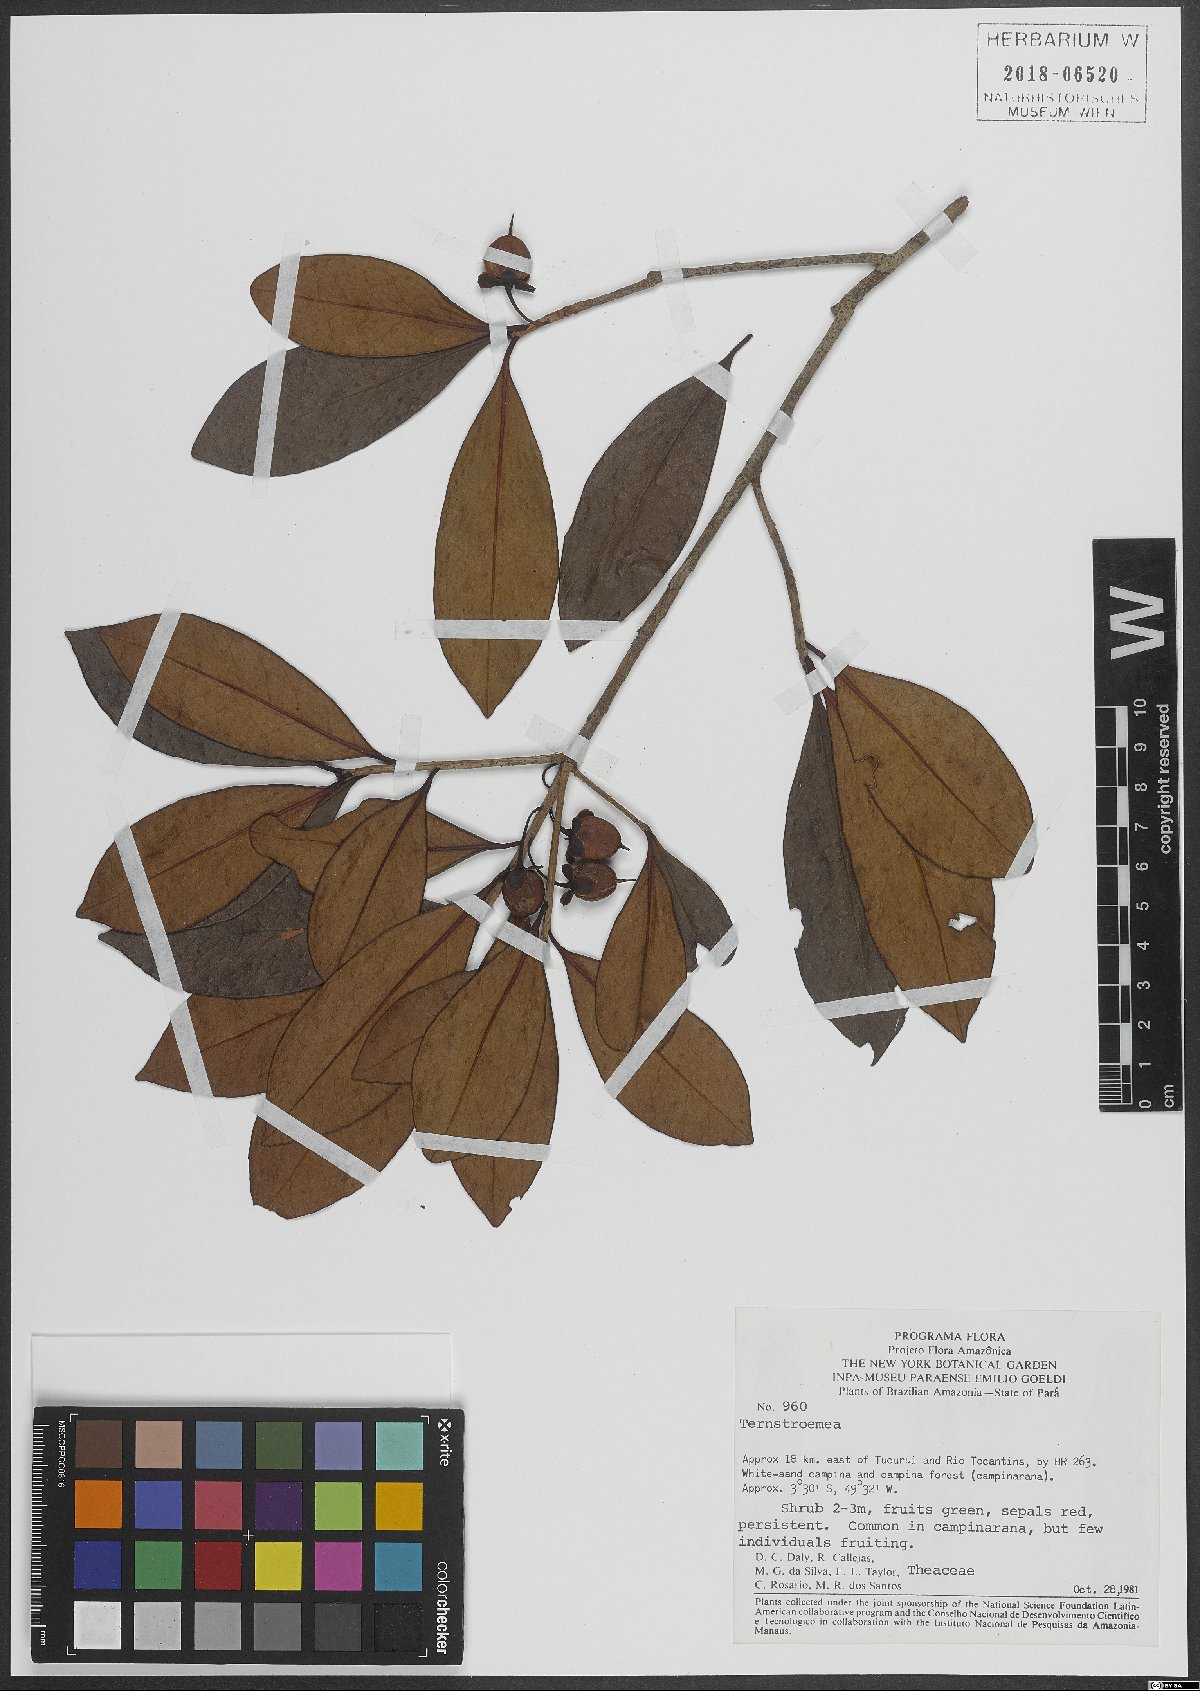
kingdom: Plantae
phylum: Tracheophyta
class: Magnoliopsida
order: Ericales
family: Pentaphylacaceae
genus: Ternstroemia
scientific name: Ternstroemia
